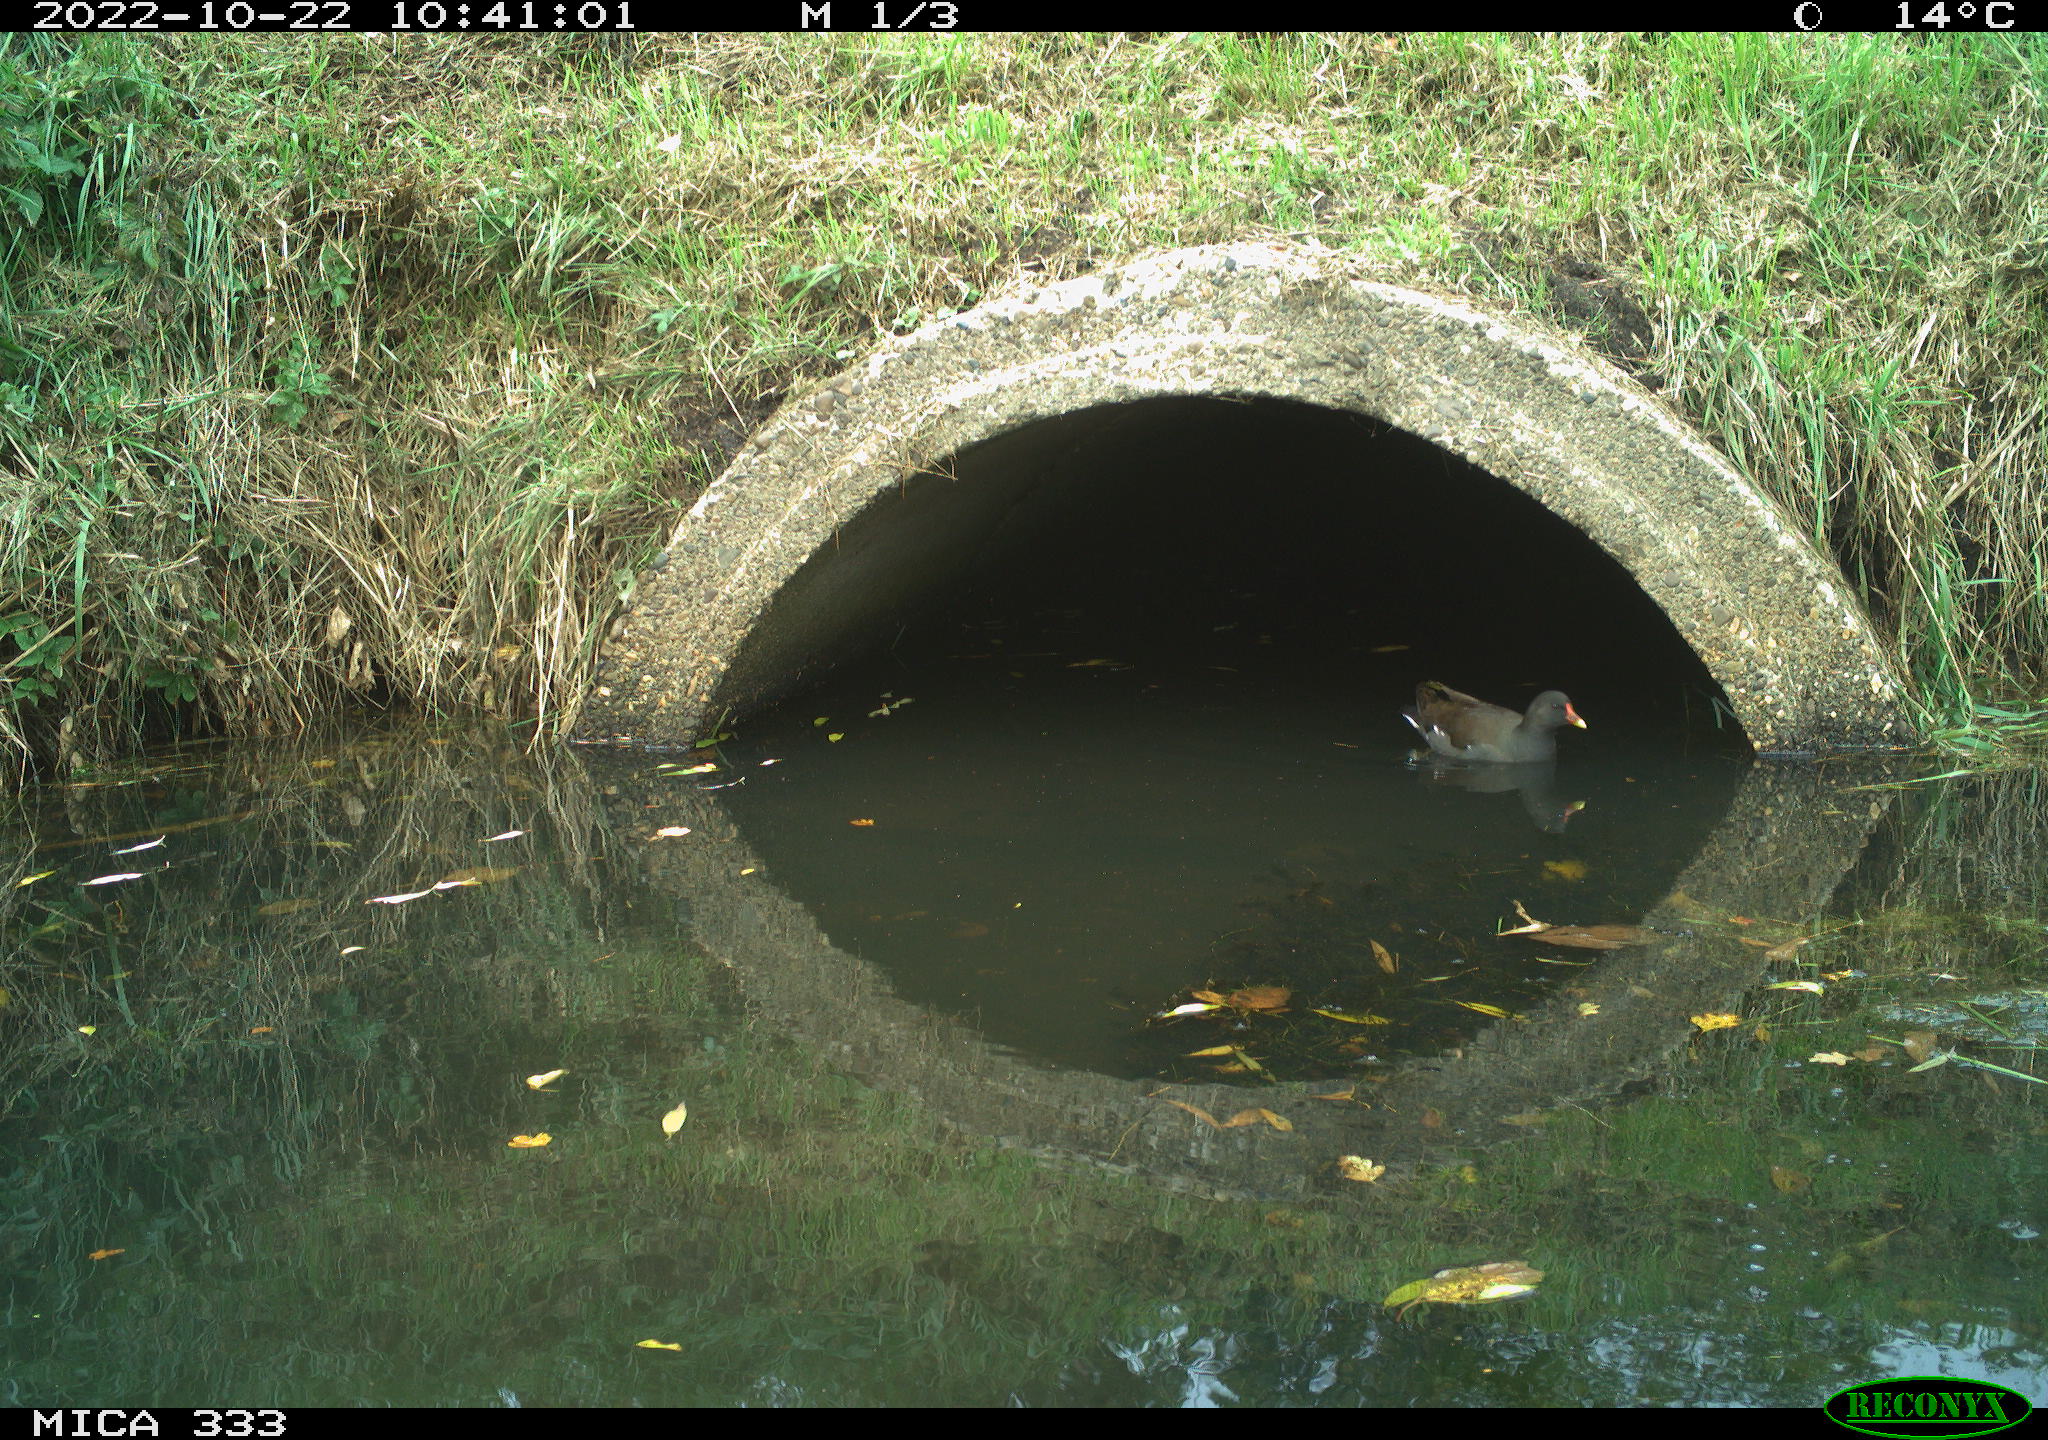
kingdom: Animalia
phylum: Chordata
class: Aves
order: Gruiformes
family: Rallidae
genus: Gallinula
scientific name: Gallinula chloropus
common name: Common moorhen
